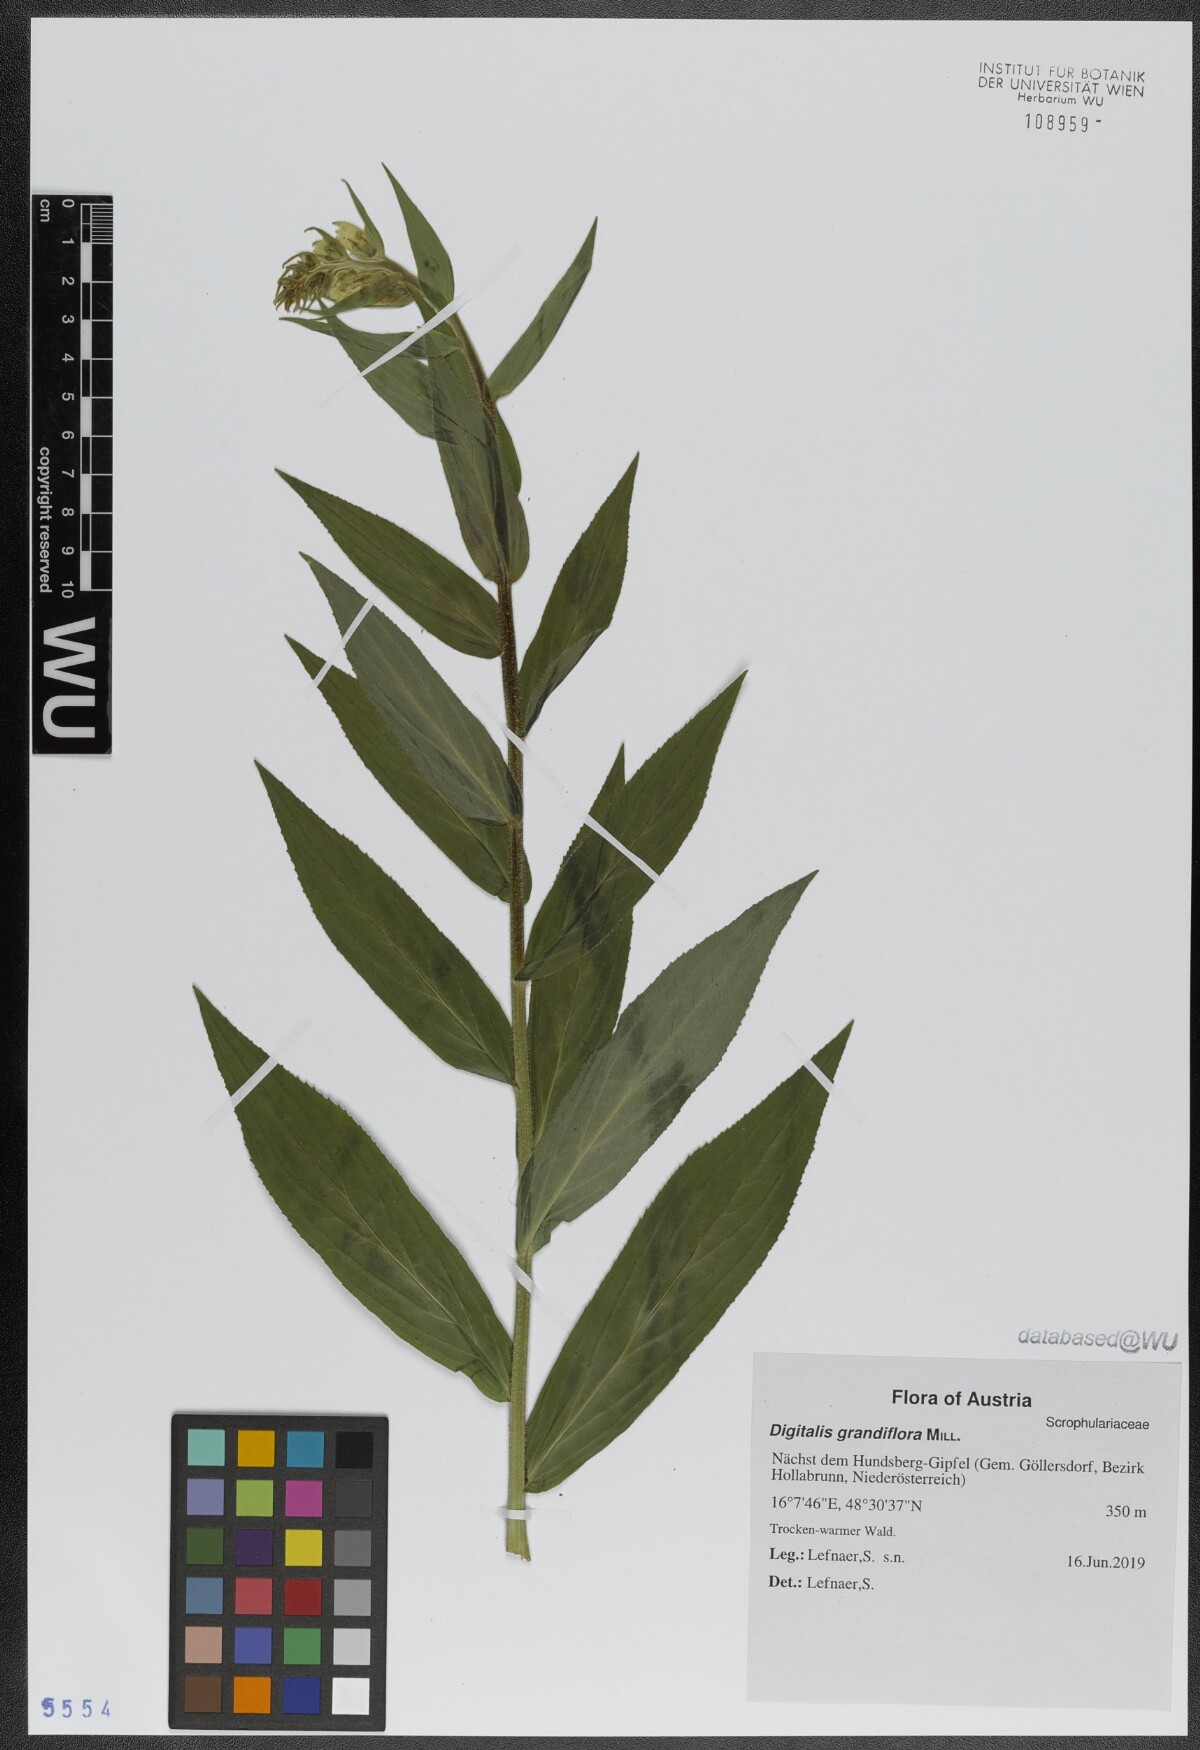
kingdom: Plantae
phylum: Tracheophyta
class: Magnoliopsida
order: Lamiales
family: Plantaginaceae
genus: Digitalis
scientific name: Digitalis grandiflora
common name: Yellow foxglove
